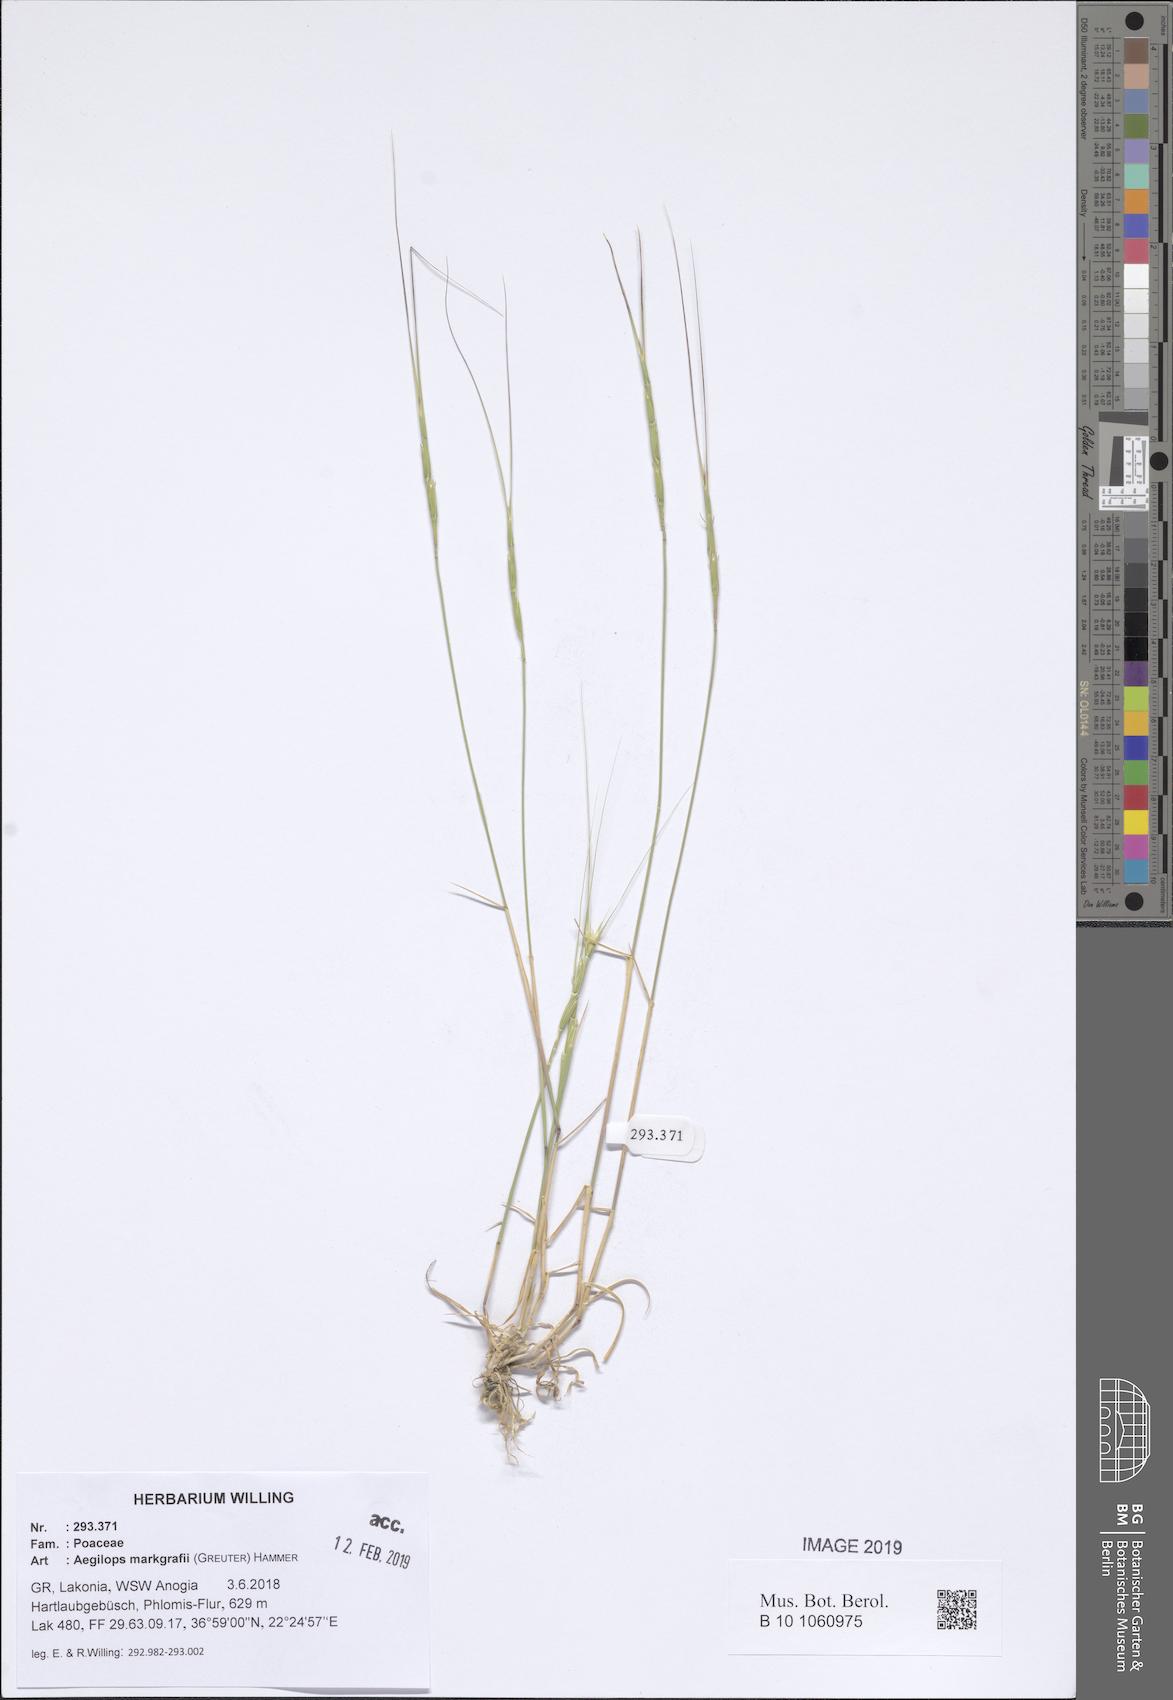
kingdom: Plantae
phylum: Tracheophyta
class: Liliopsida
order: Poales
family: Poaceae
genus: Aegilops
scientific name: Aegilops caudata
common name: Cretan hard-grass
